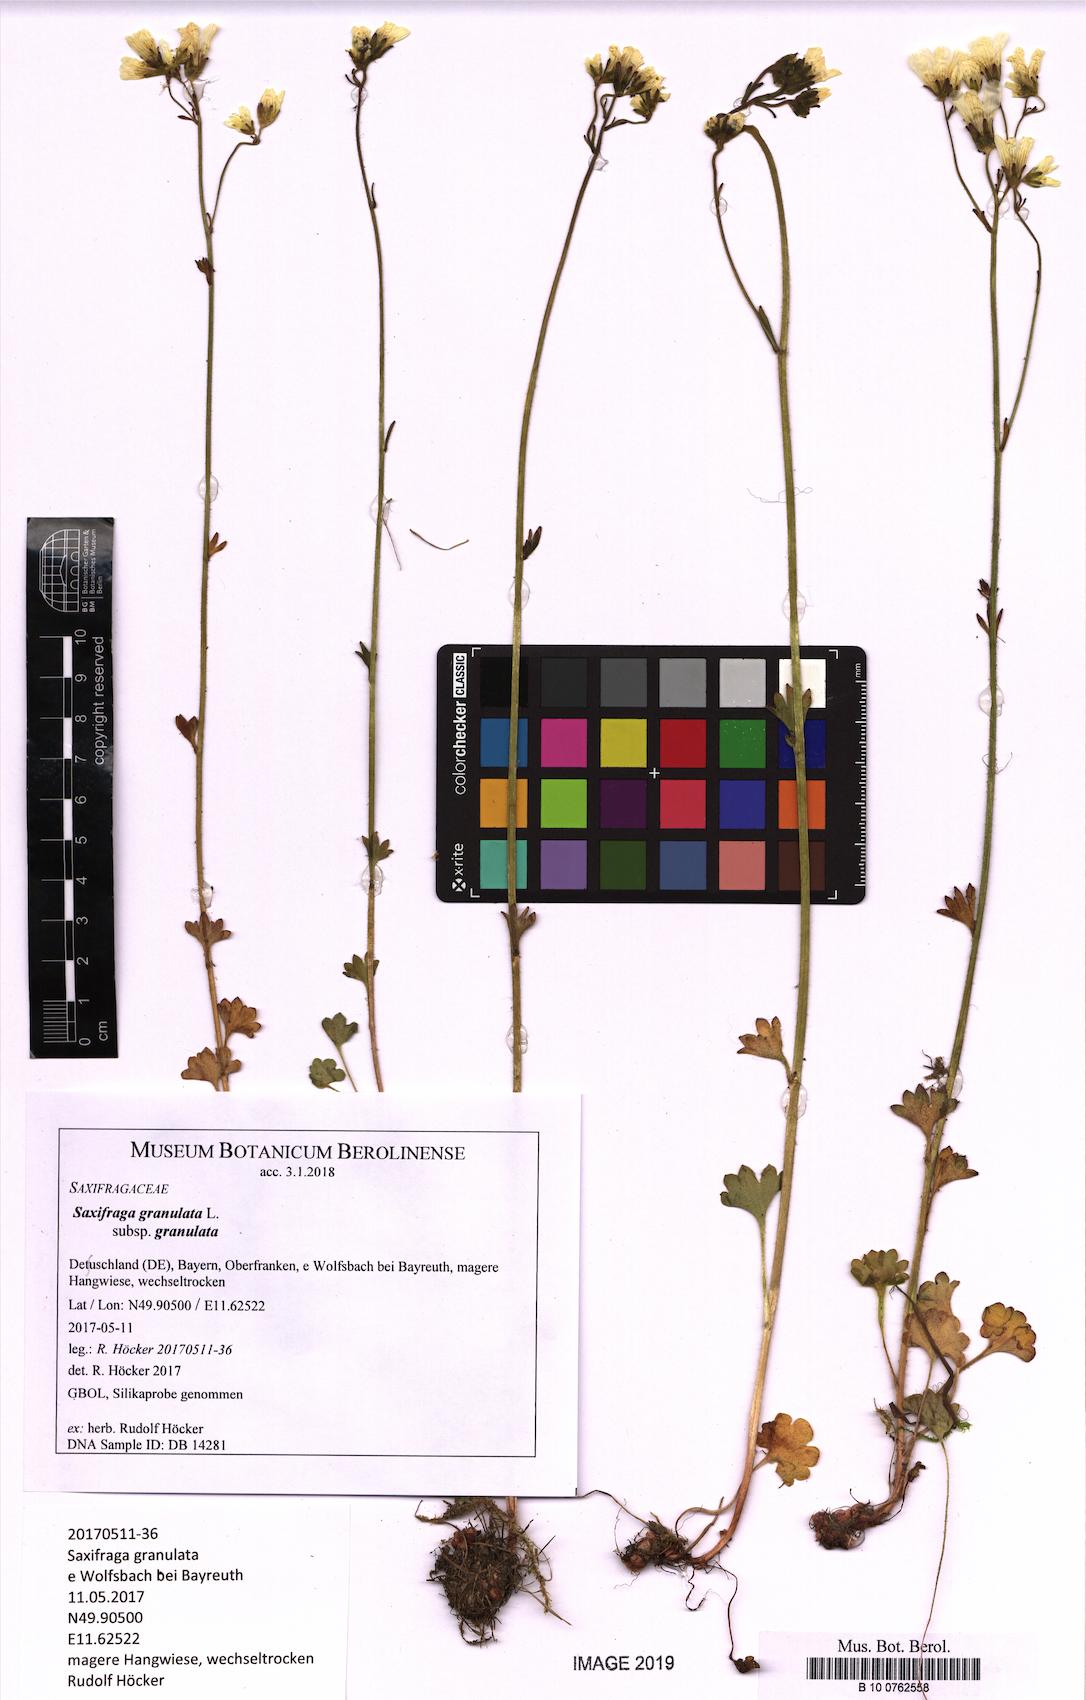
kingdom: Plantae
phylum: Tracheophyta
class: Magnoliopsida
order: Saxifragales
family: Saxifragaceae
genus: Saxifraga
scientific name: Saxifraga granulata
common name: Meadow saxifrage
